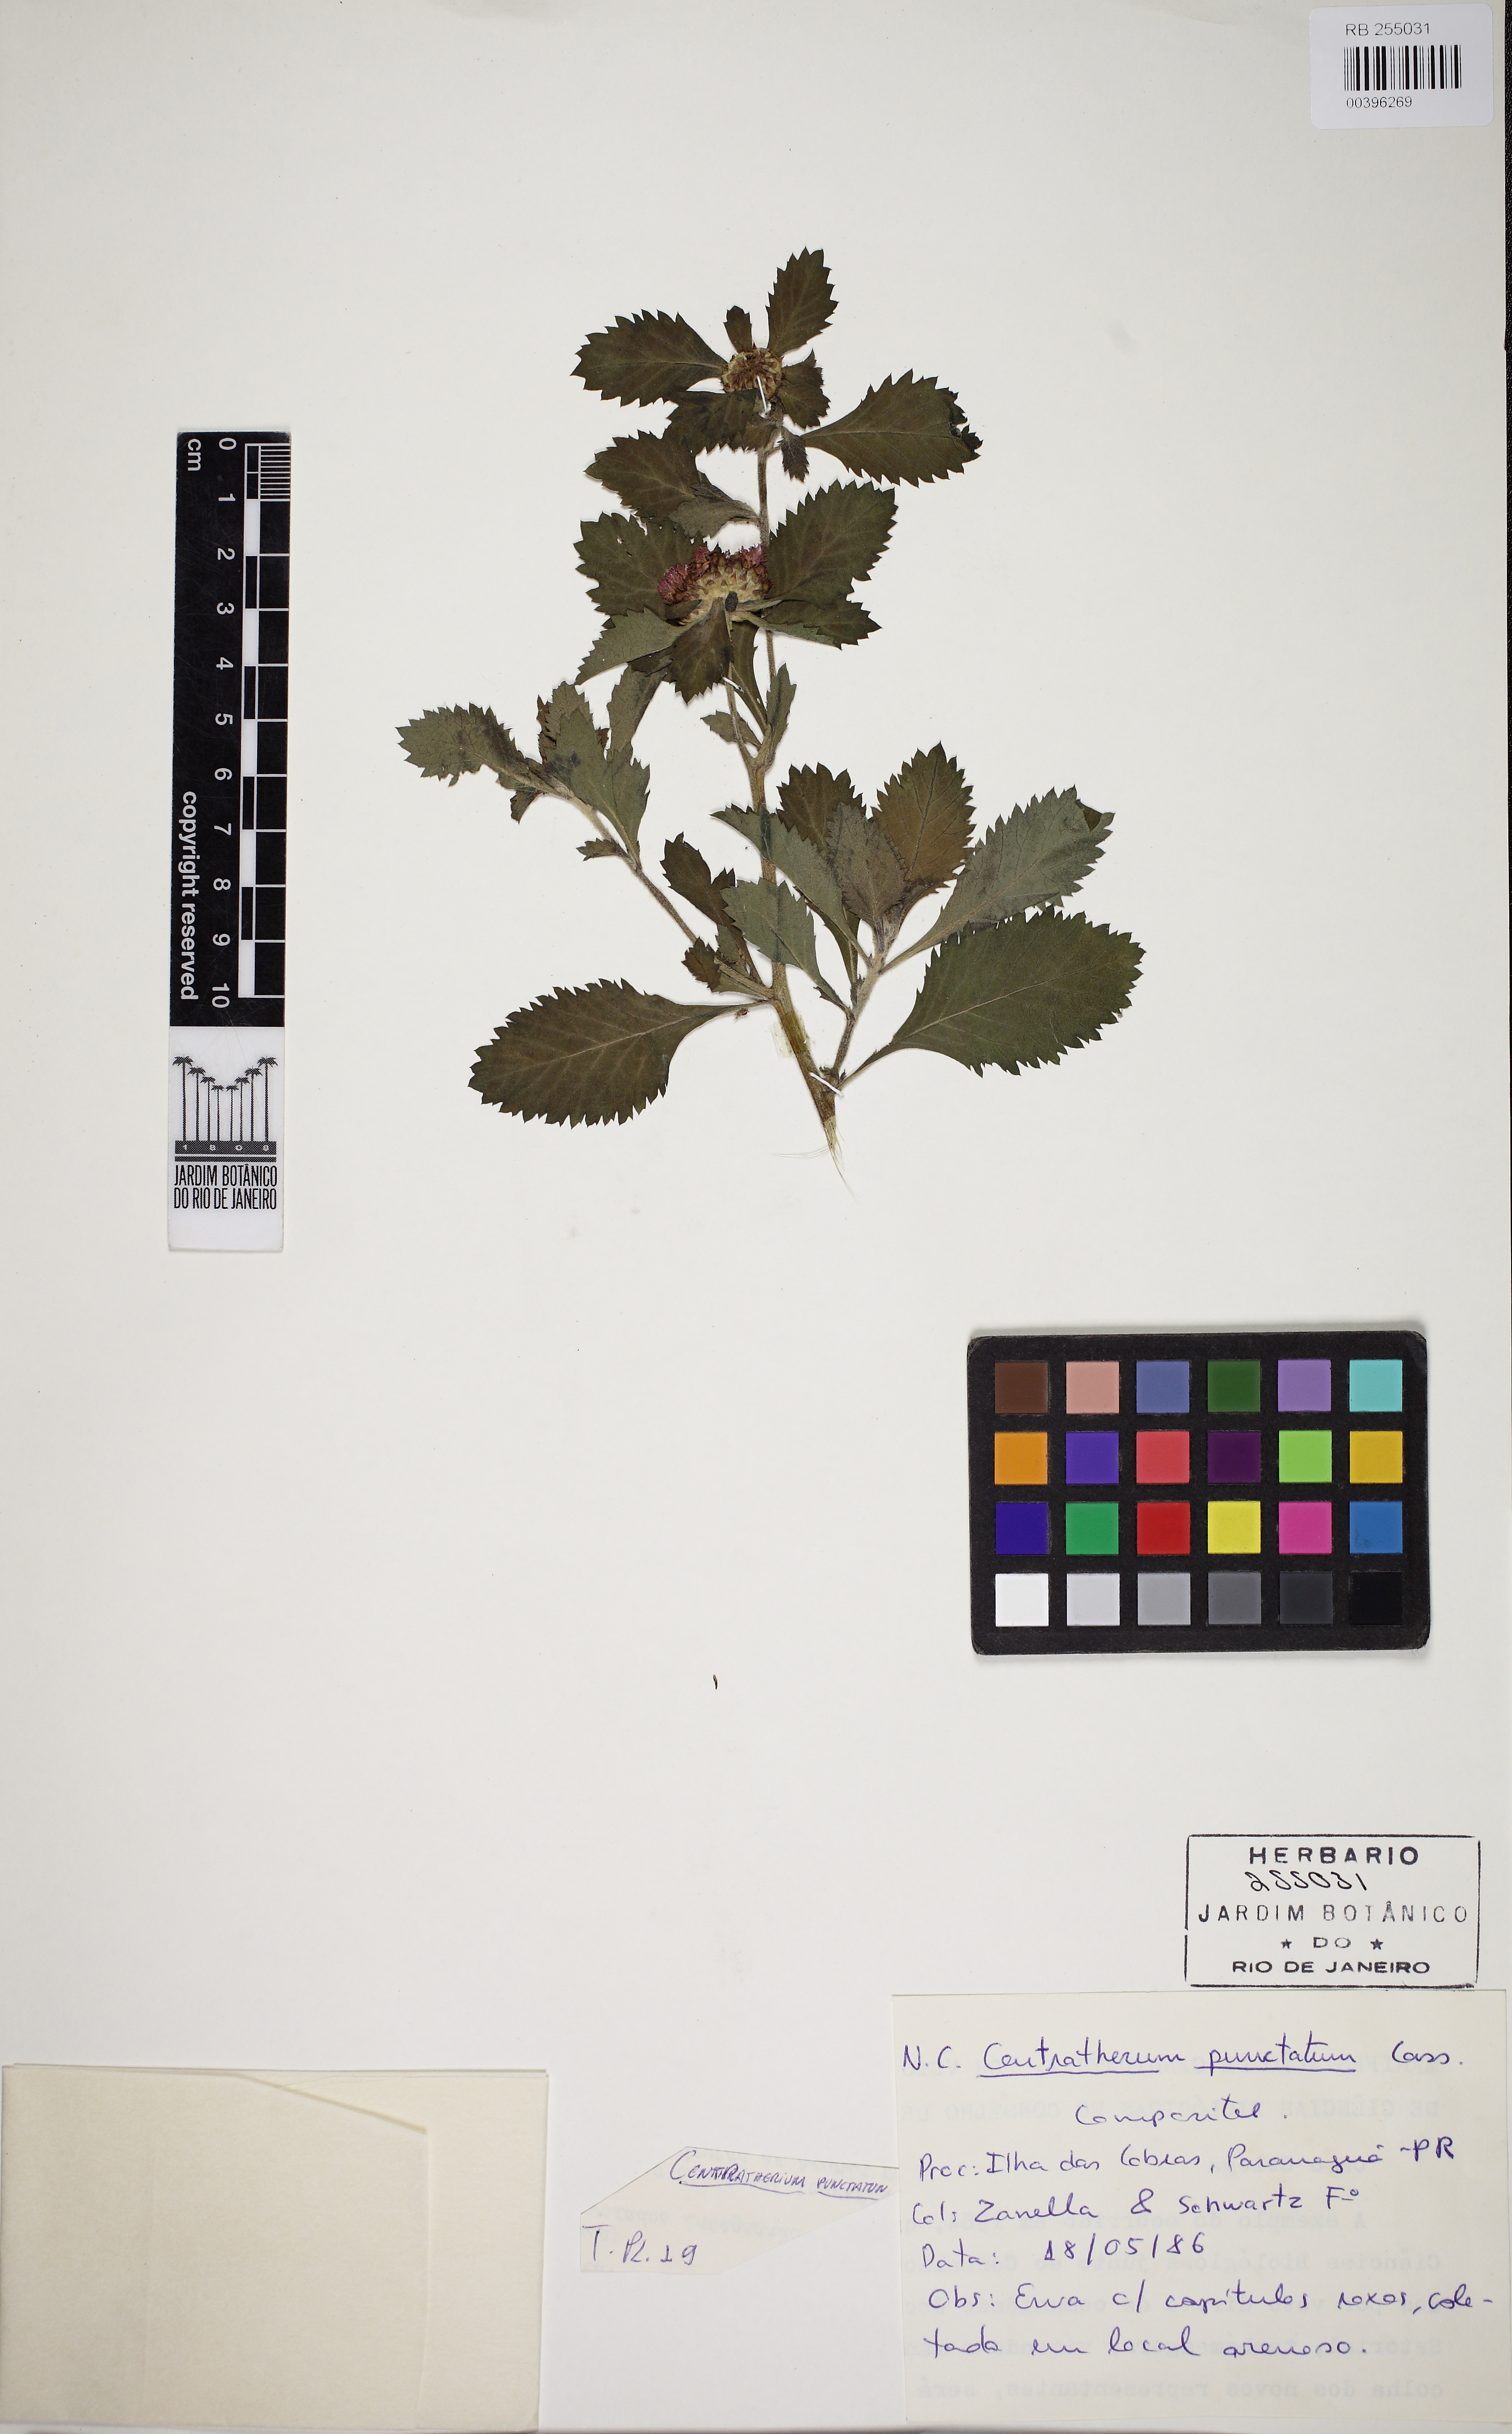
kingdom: Plantae
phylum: Tracheophyta
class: Magnoliopsida
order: Asterales
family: Asteraceae
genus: Centratherum
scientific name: Centratherum punctatum
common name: Larkdaisy
